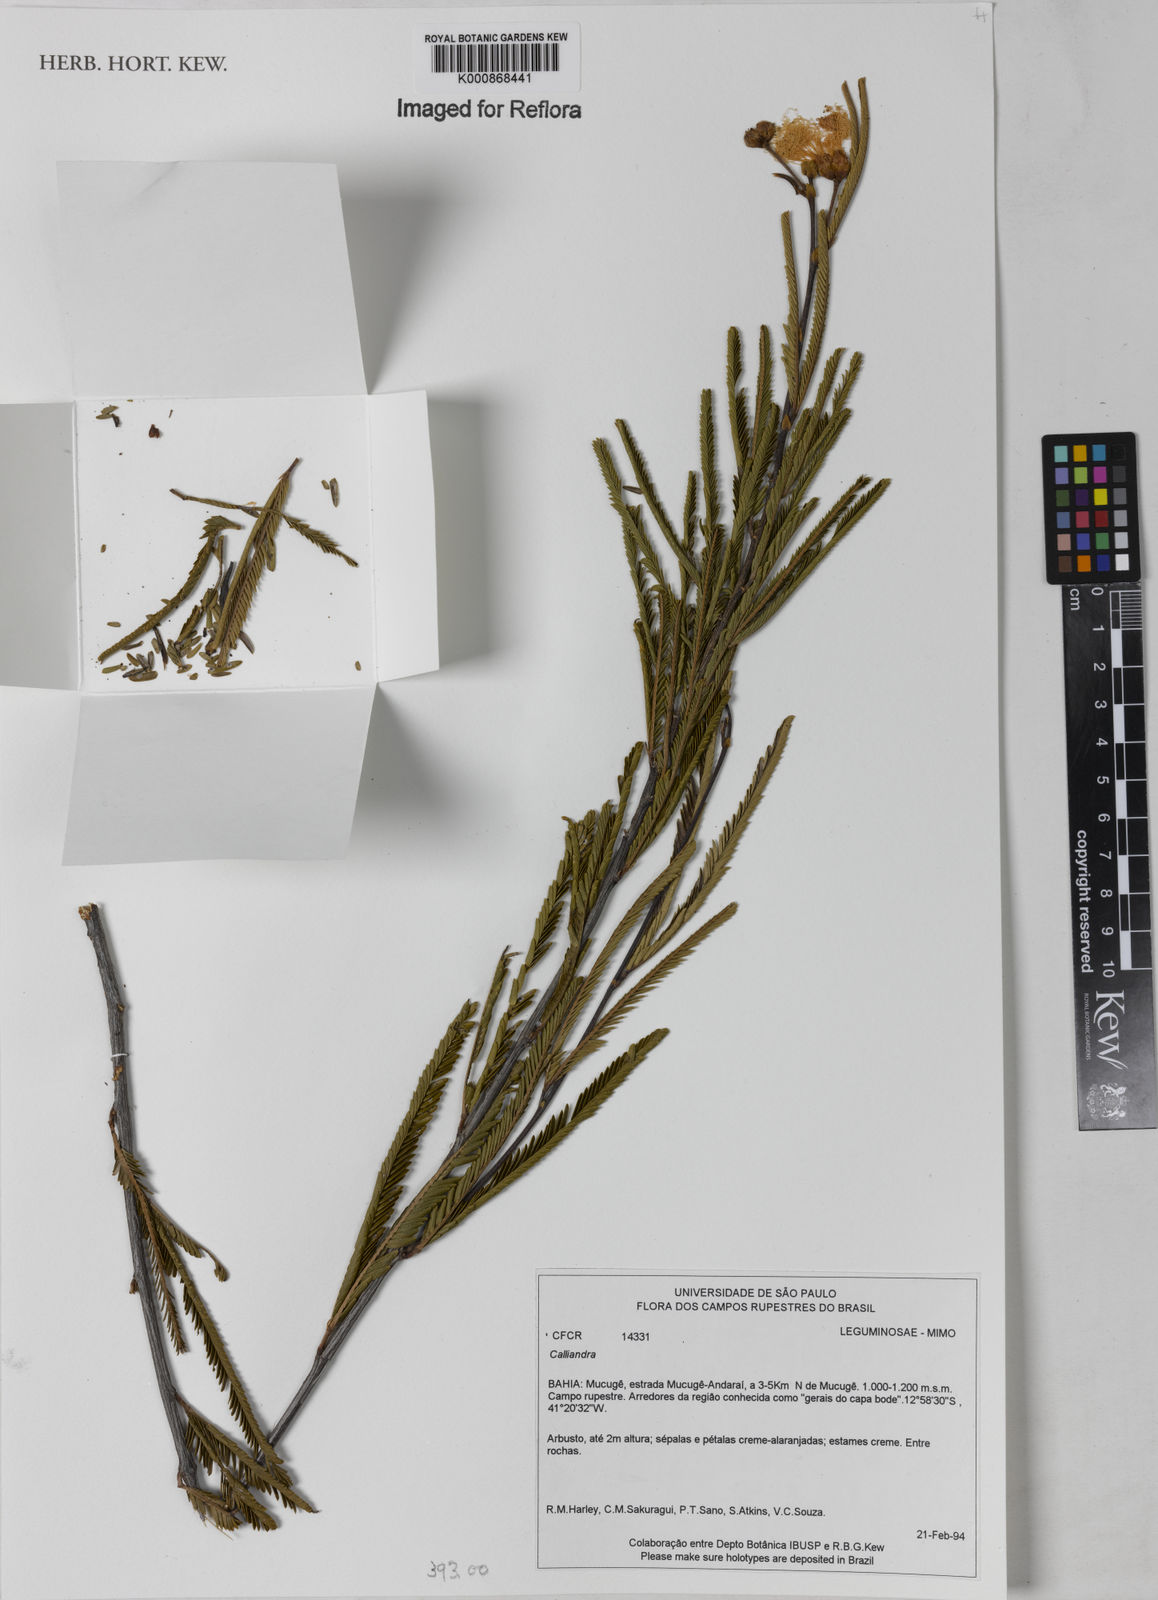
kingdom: Plantae
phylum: Tracheophyta
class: Magnoliopsida
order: Fabales
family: Fabaceae
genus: Calliandra
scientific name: Calliandra
